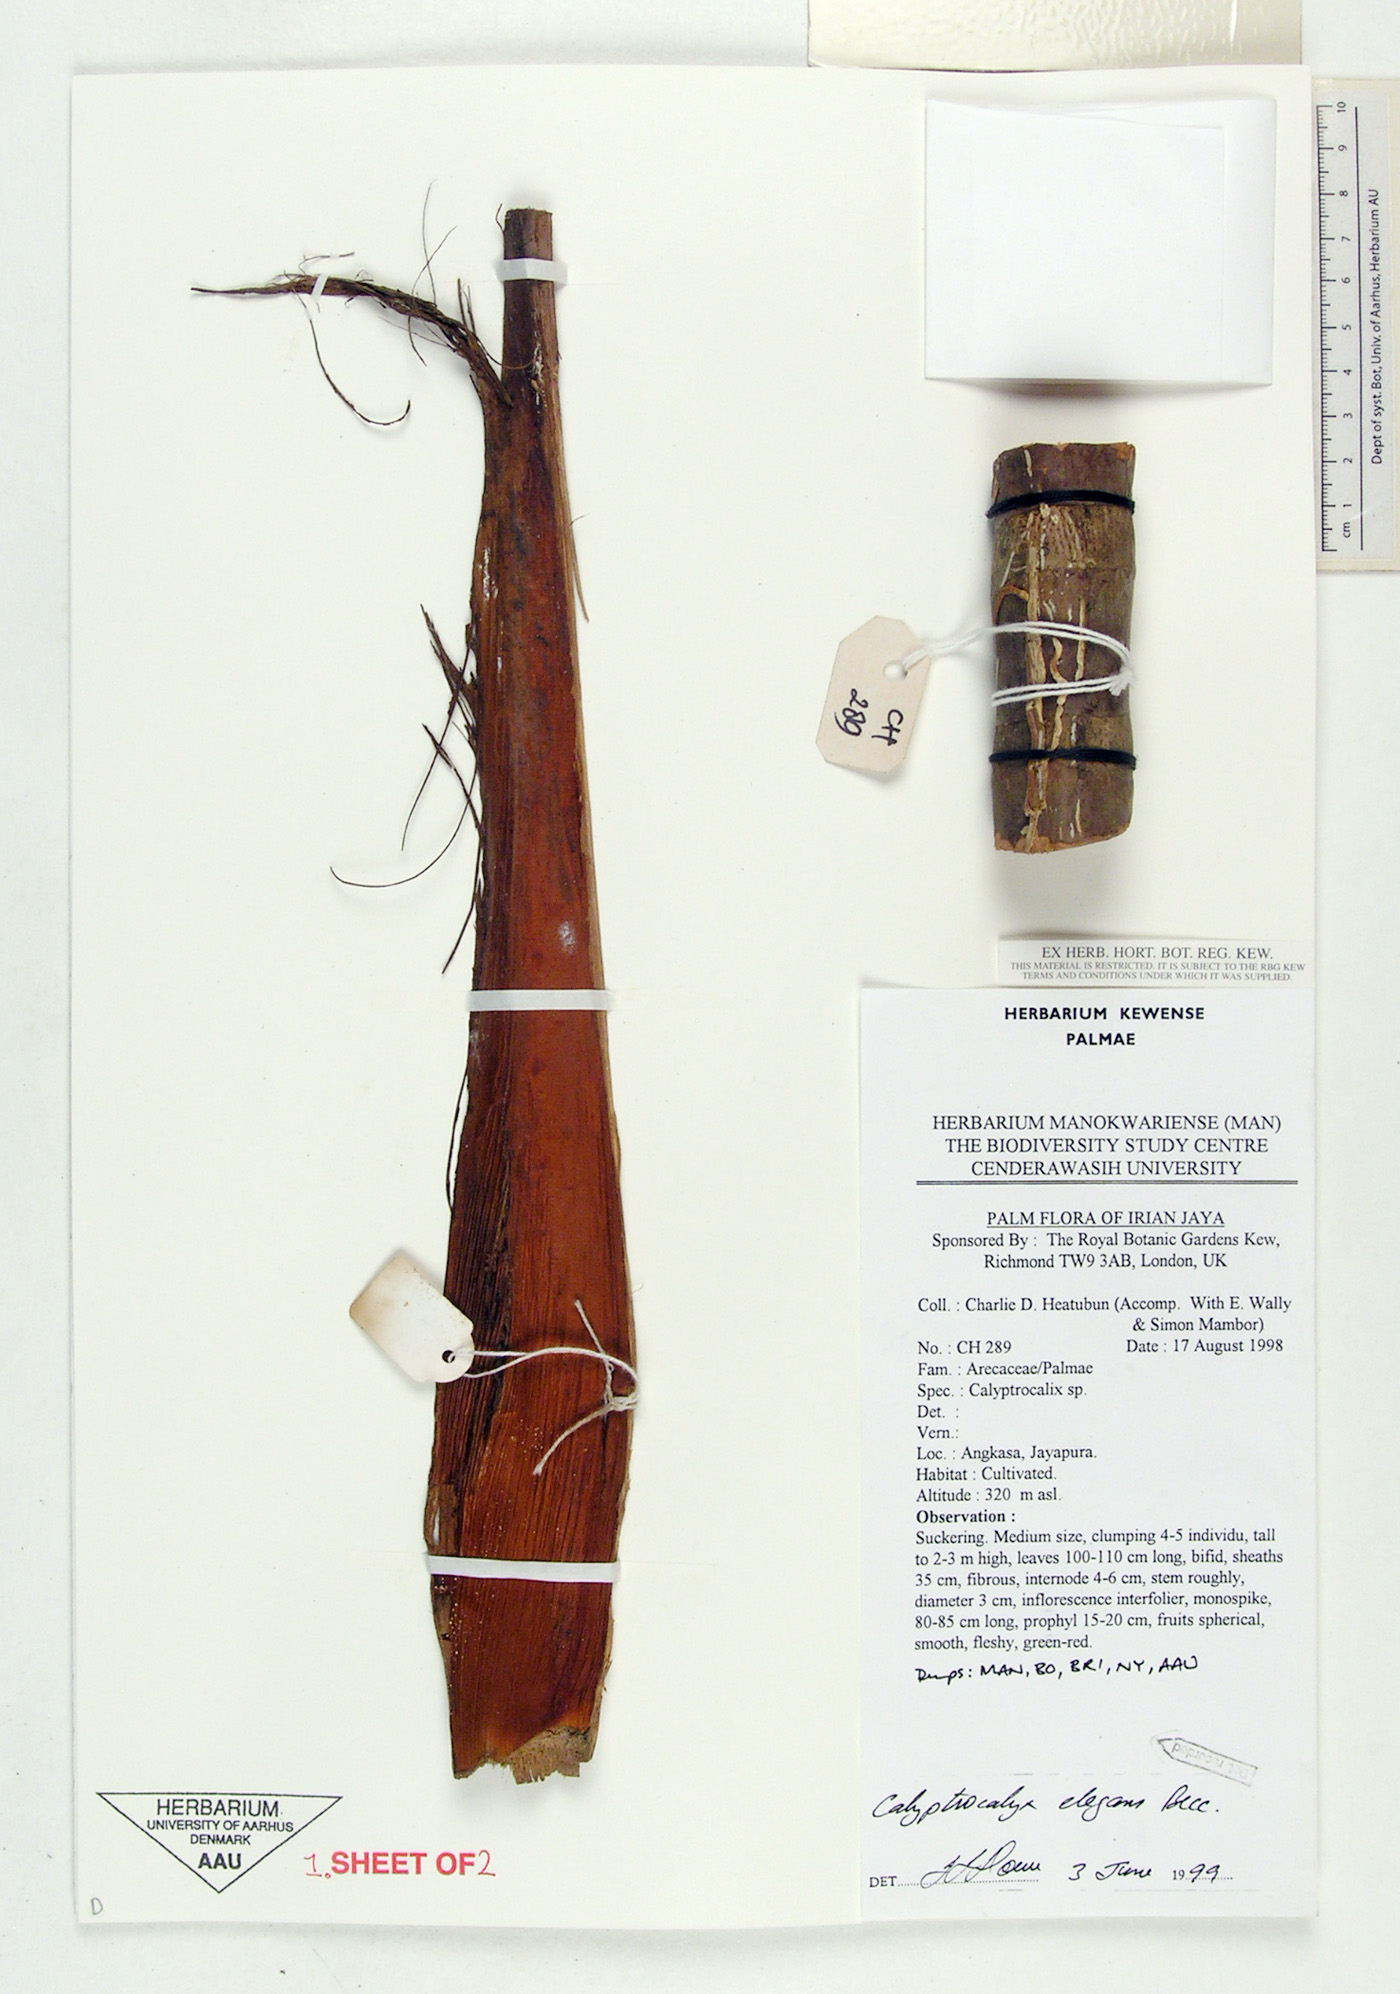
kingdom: Plantae
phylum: Tracheophyta
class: Liliopsida
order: Arecales
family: Arecaceae
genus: Calyptrocalyx
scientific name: Calyptrocalyx elegans
